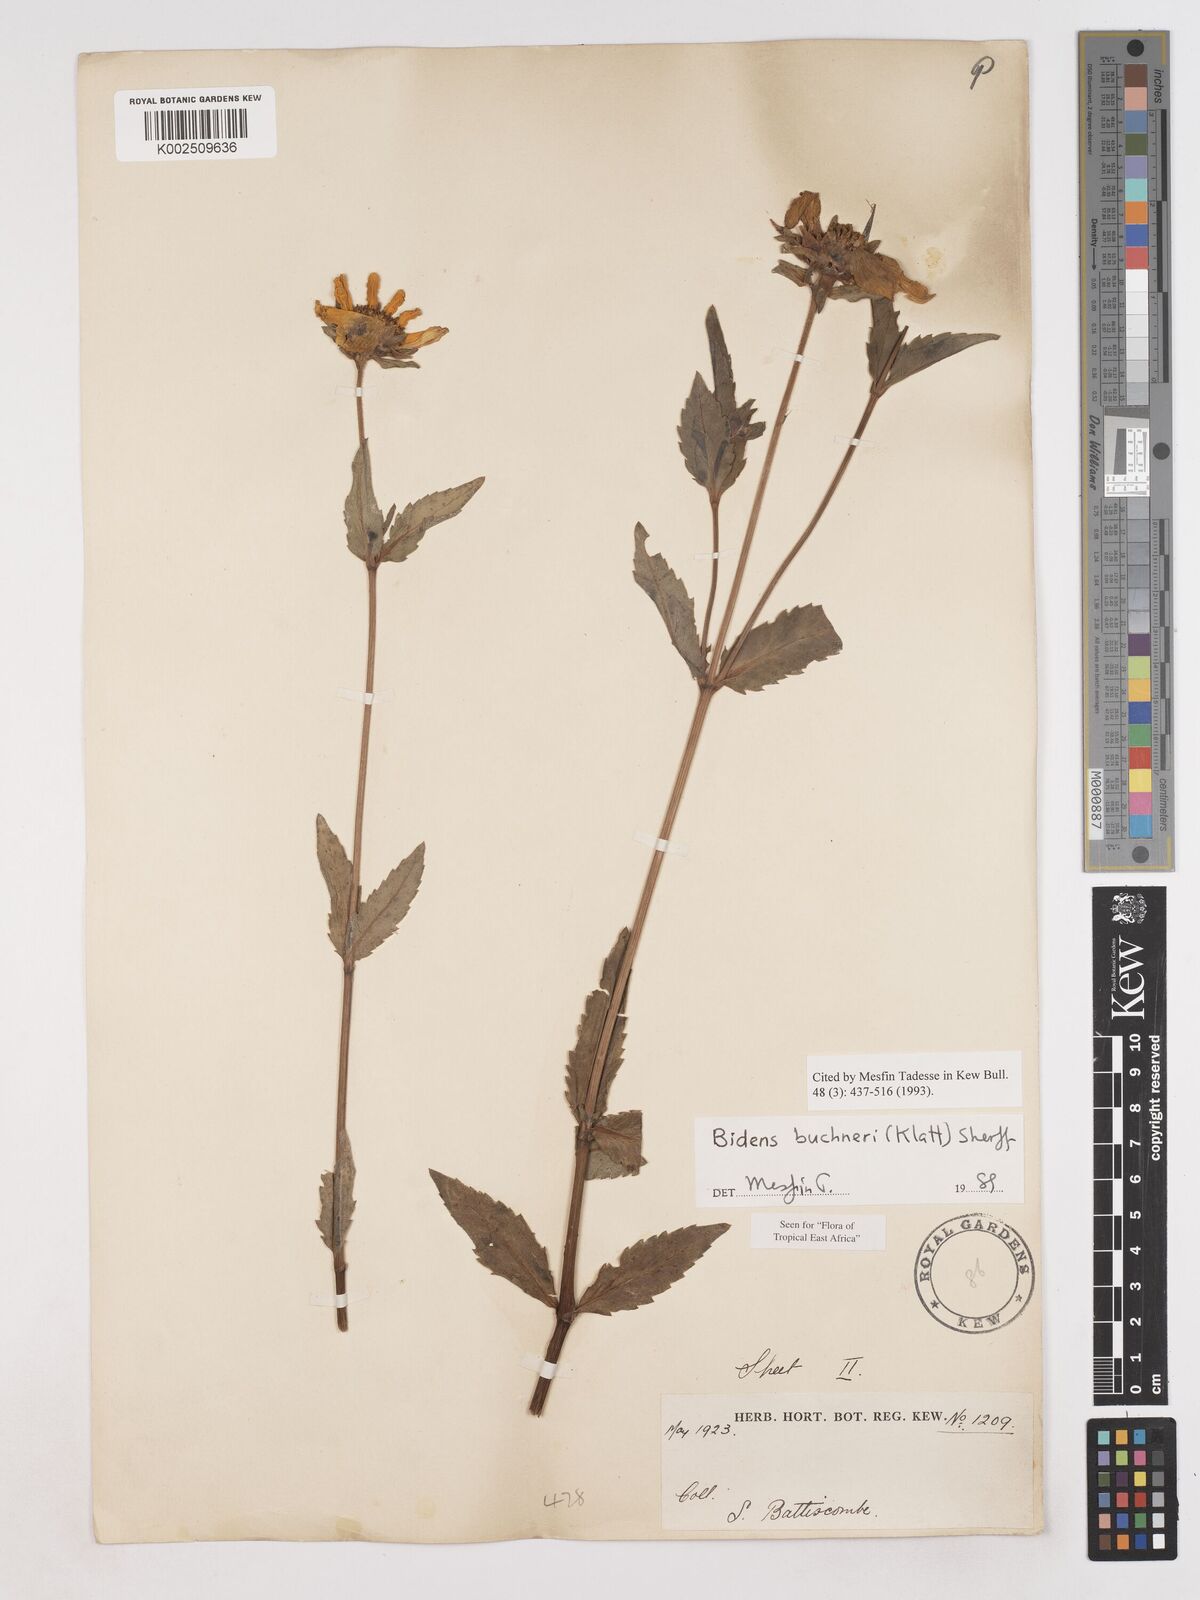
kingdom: Plantae
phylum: Tracheophyta
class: Magnoliopsida
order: Asterales
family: Asteraceae
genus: Bidens
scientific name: Bidens buchneri
